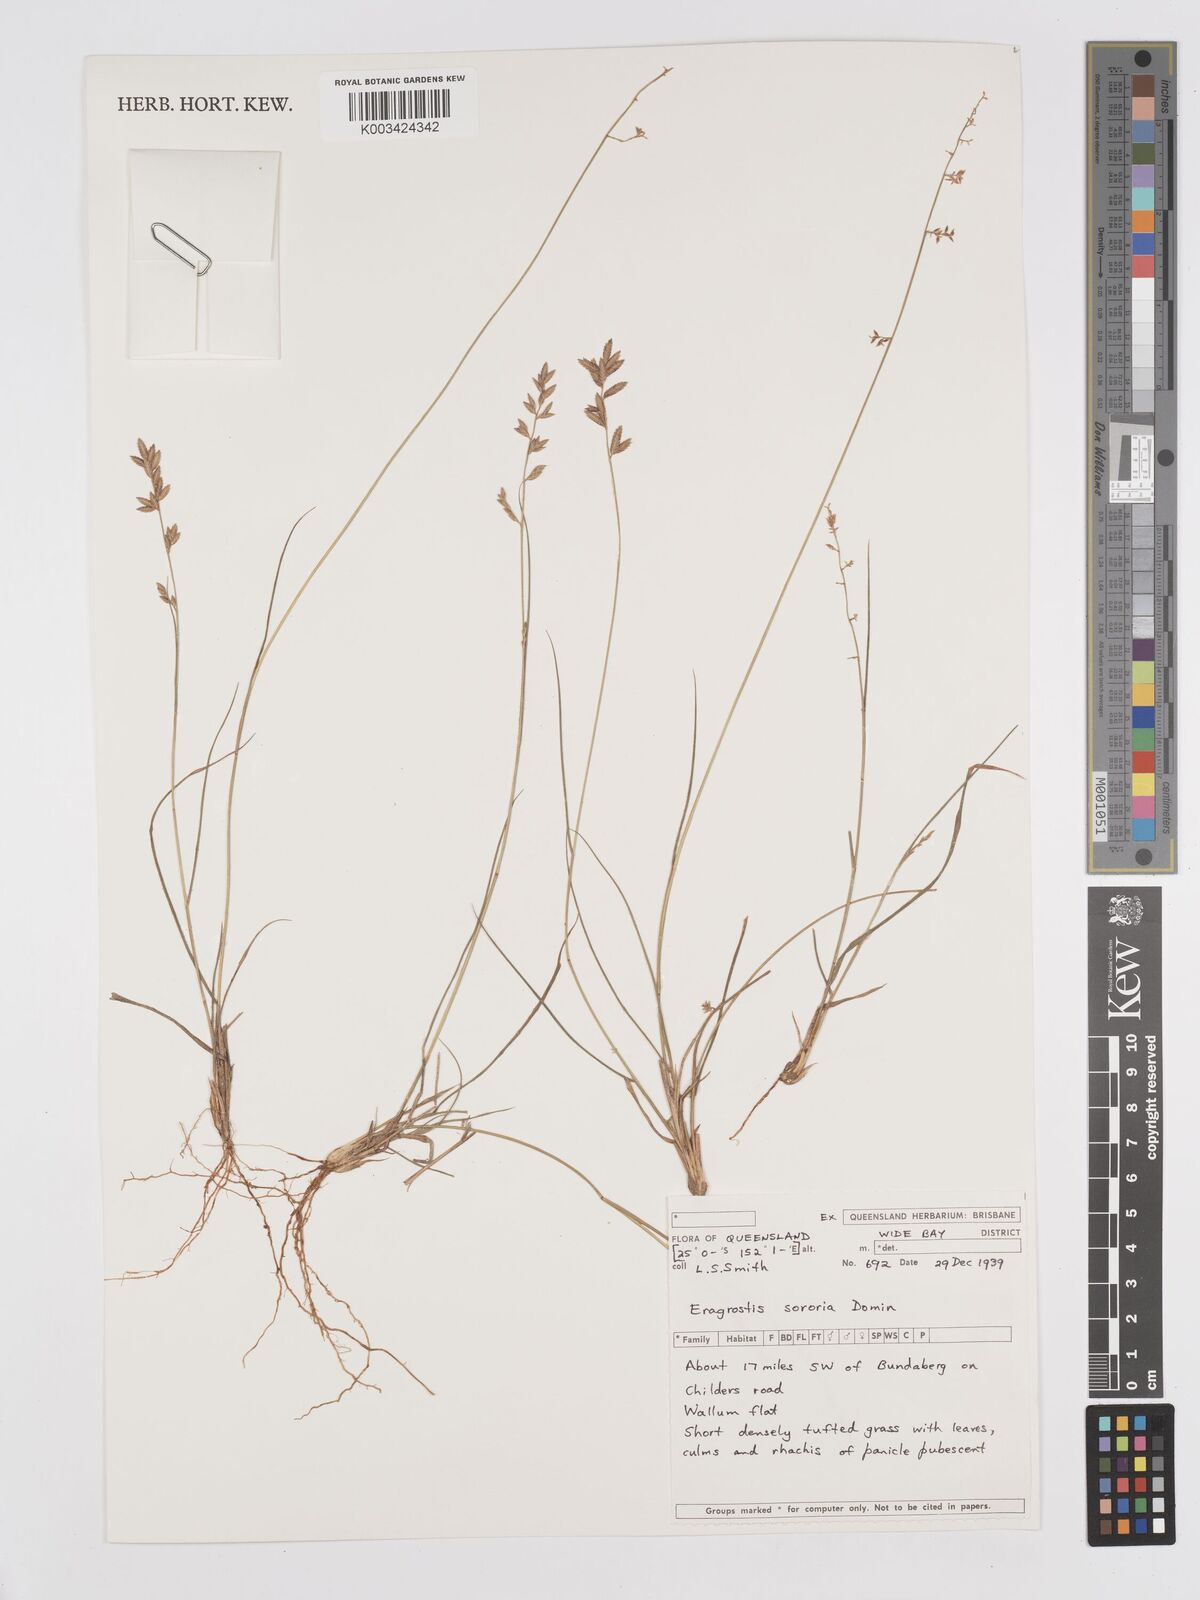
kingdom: Plantae
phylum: Tracheophyta
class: Liliopsida
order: Poales
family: Poaceae
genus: Eragrostis
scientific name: Eragrostis sororia
